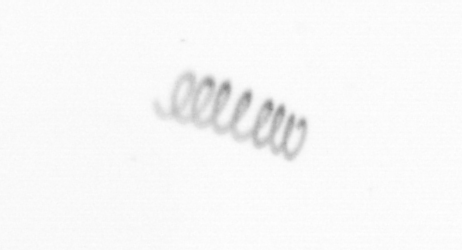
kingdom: Chromista
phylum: Ochrophyta
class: Bacillariophyceae
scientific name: Bacillariophyceae
